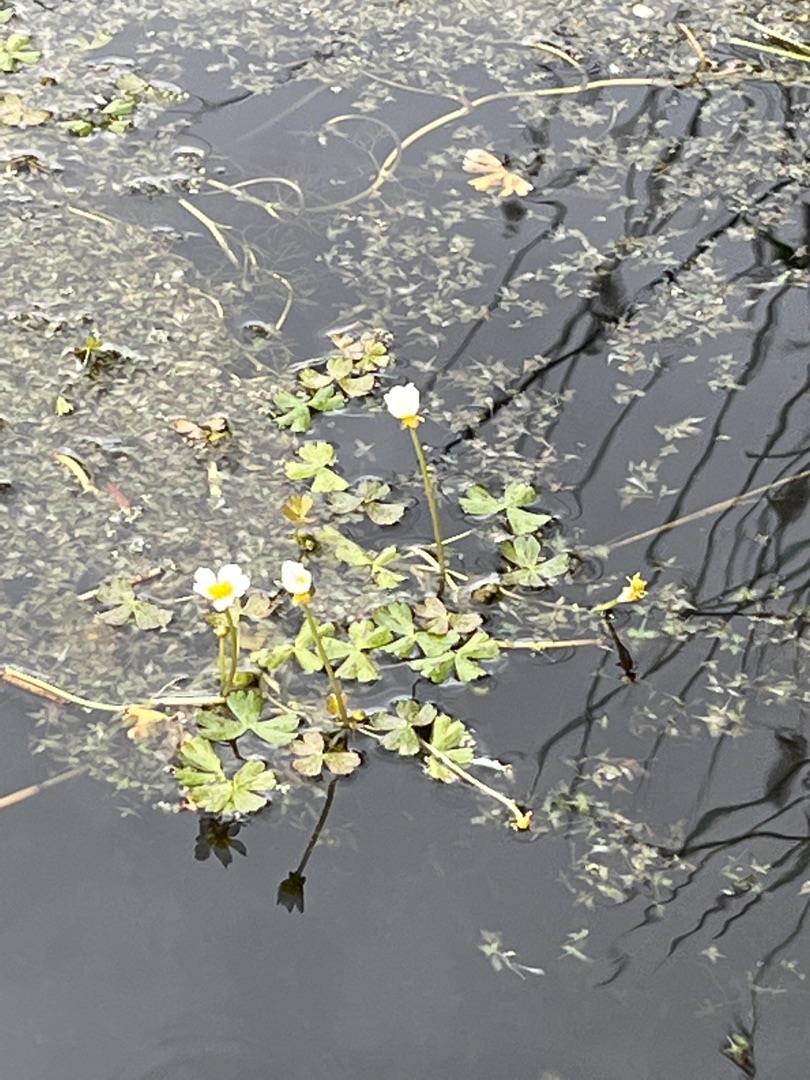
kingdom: Plantae
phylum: Tracheophyta
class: Magnoliopsida
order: Ranunculales
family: Ranunculaceae
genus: Ranunculus
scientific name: Ranunculus peltatus
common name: Strand-vandranunkel
